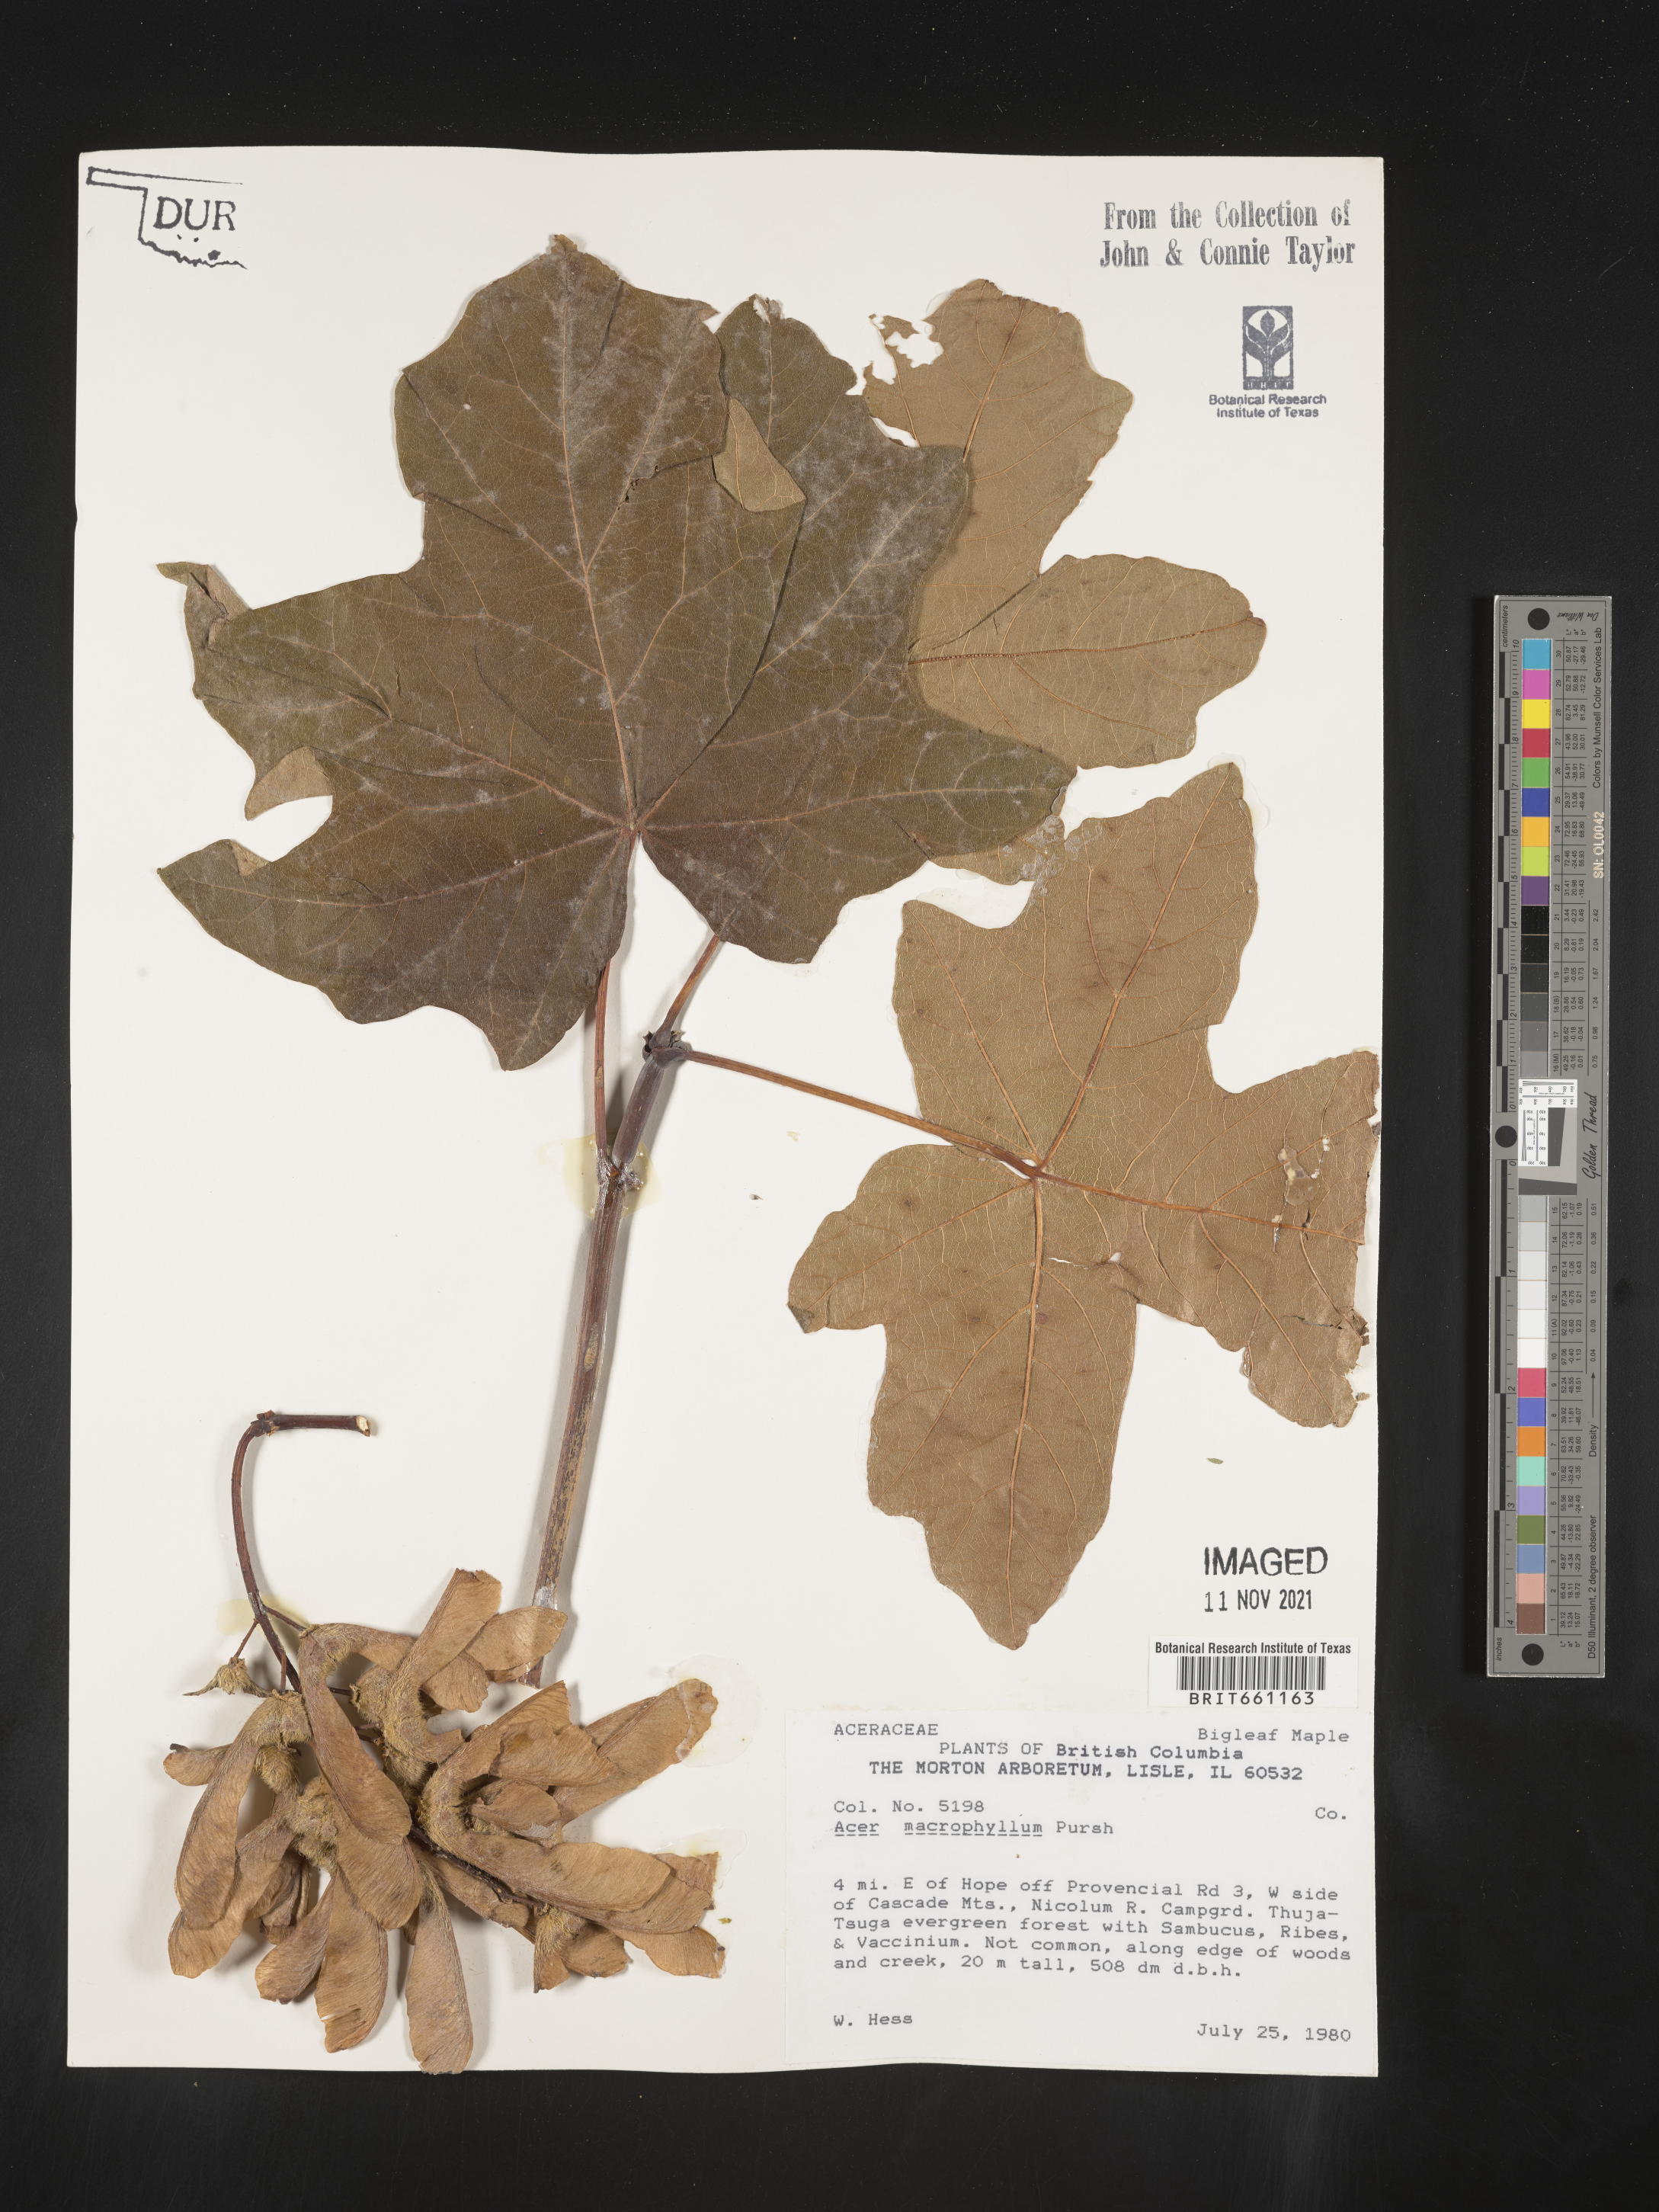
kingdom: Plantae
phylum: Tracheophyta
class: Magnoliopsida
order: Sapindales
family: Sapindaceae
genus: Acer
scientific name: Acer macrophyllum
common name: Oregon maple
